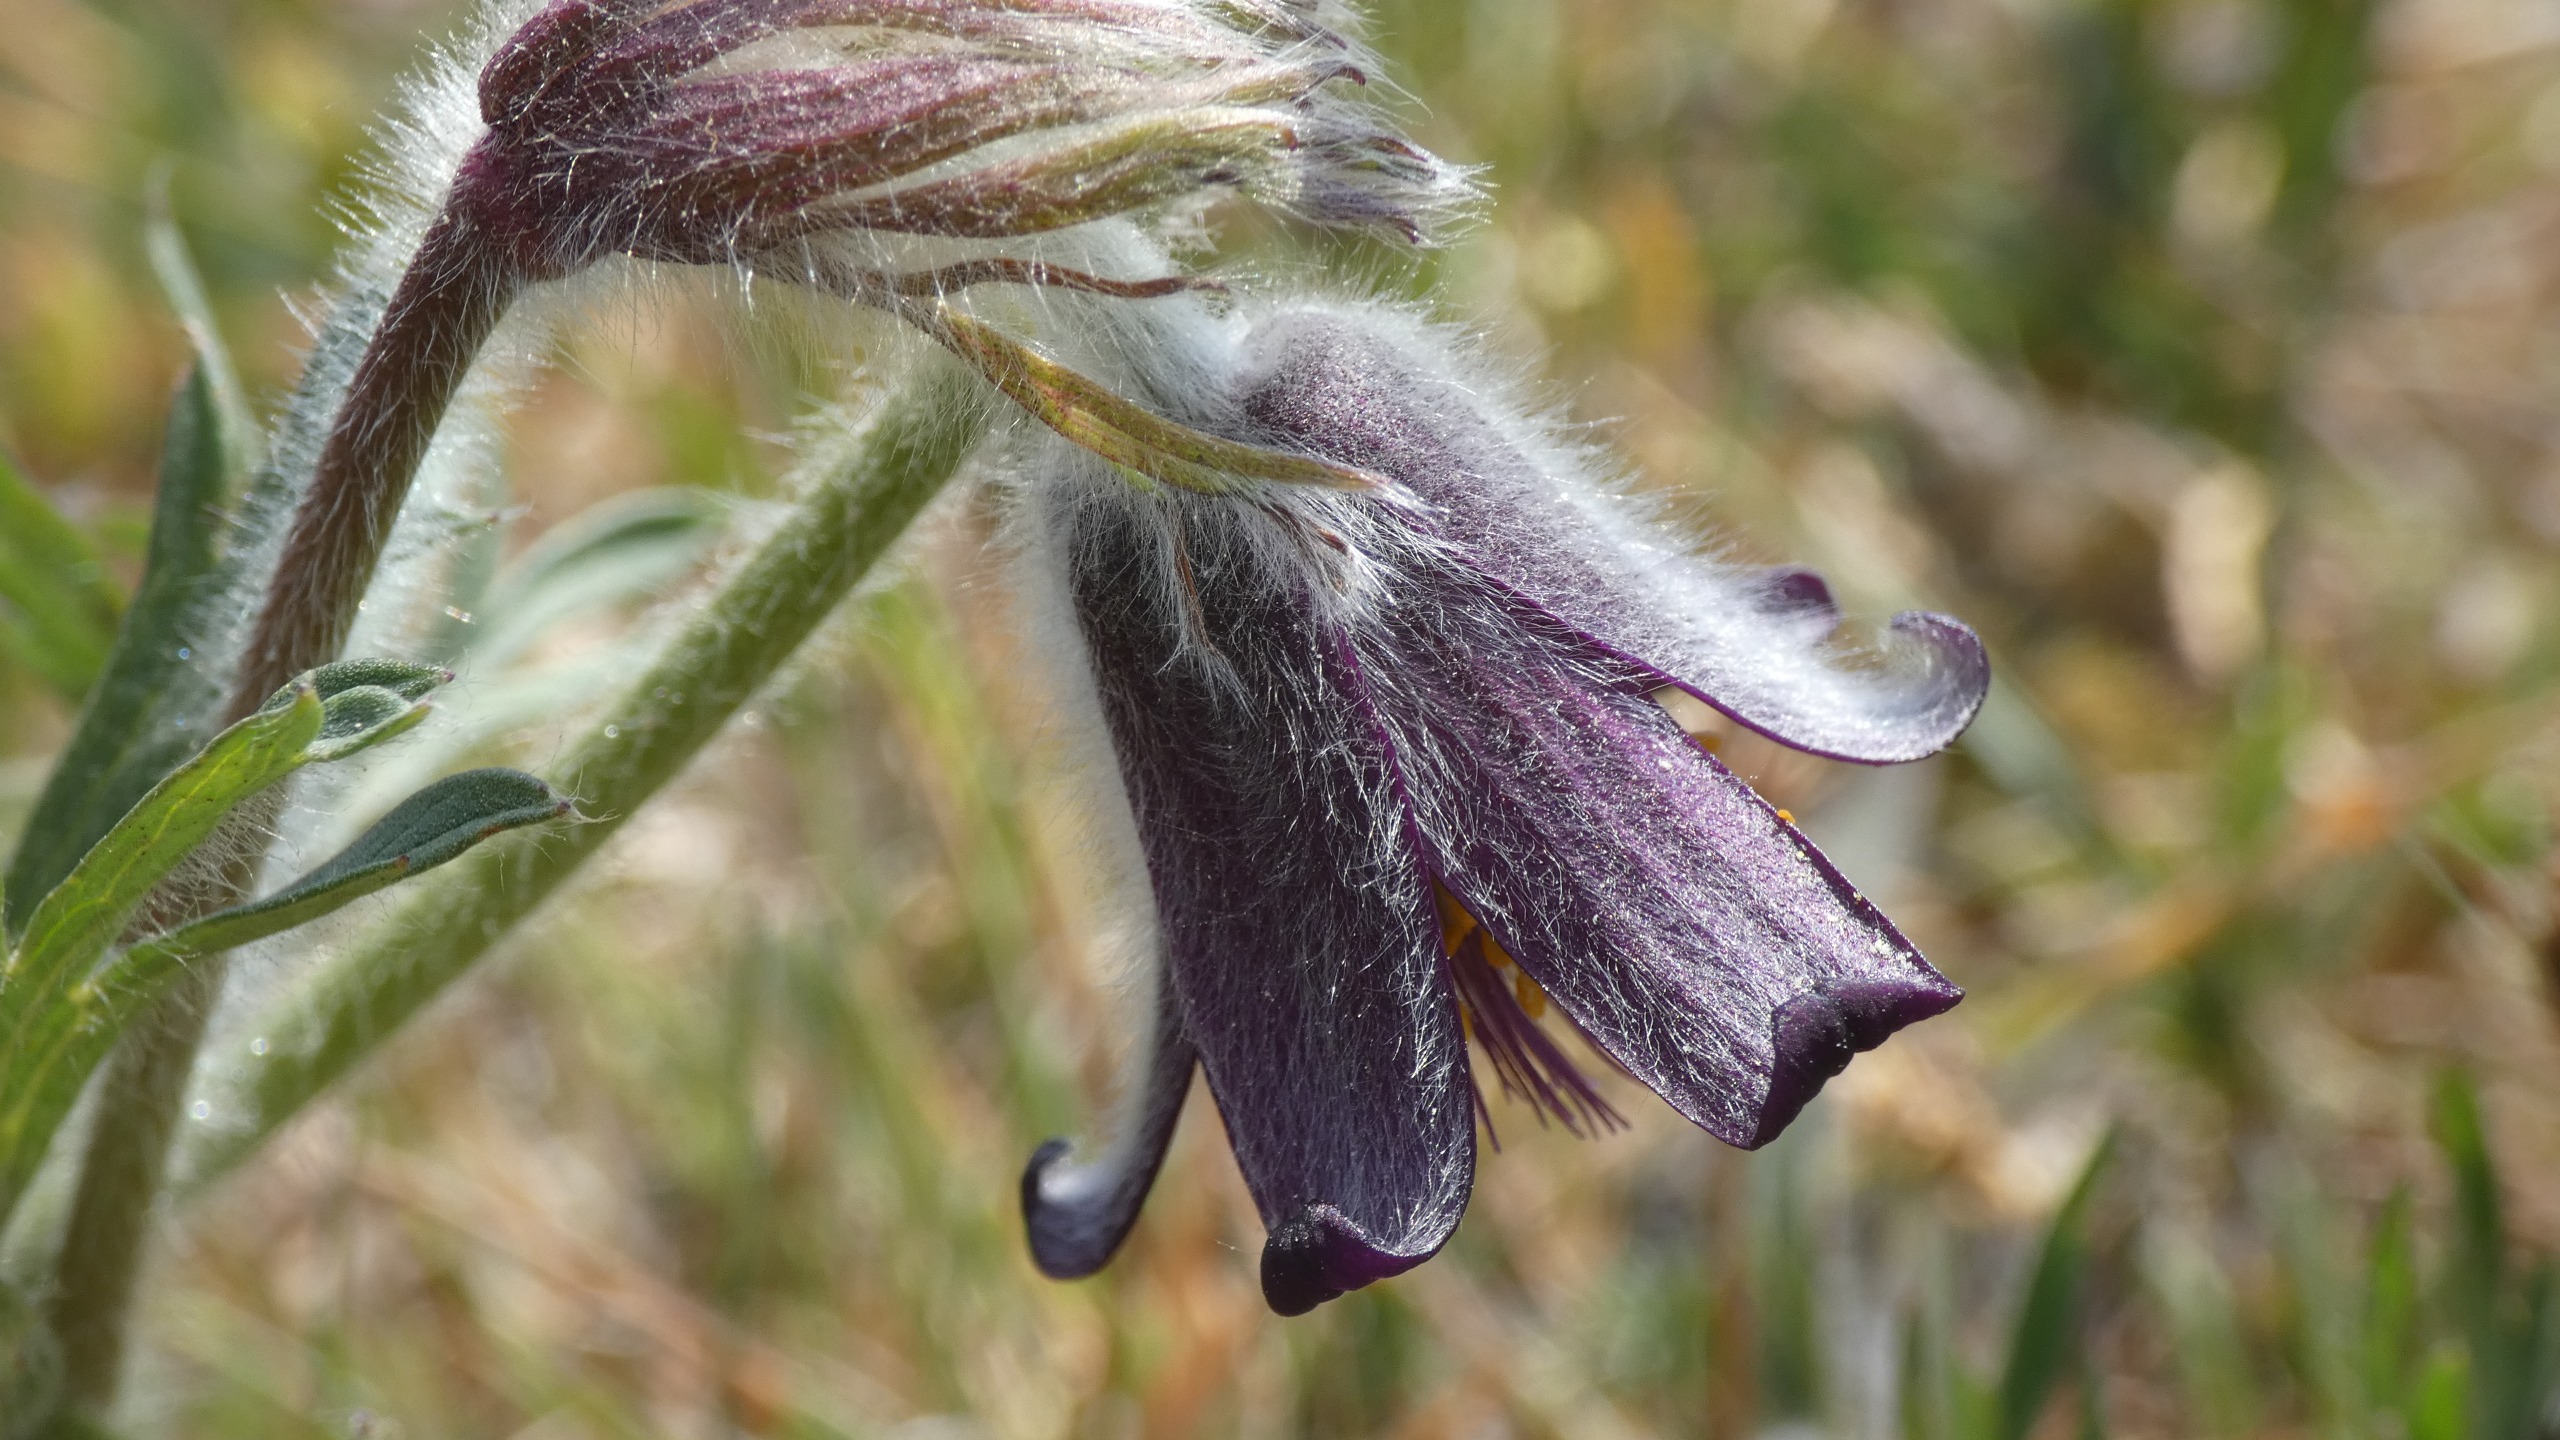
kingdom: Plantae
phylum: Tracheophyta
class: Magnoliopsida
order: Ranunculales
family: Ranunculaceae
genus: Pulsatilla
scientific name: Pulsatilla pratensis
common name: Nikkende kobjælde
